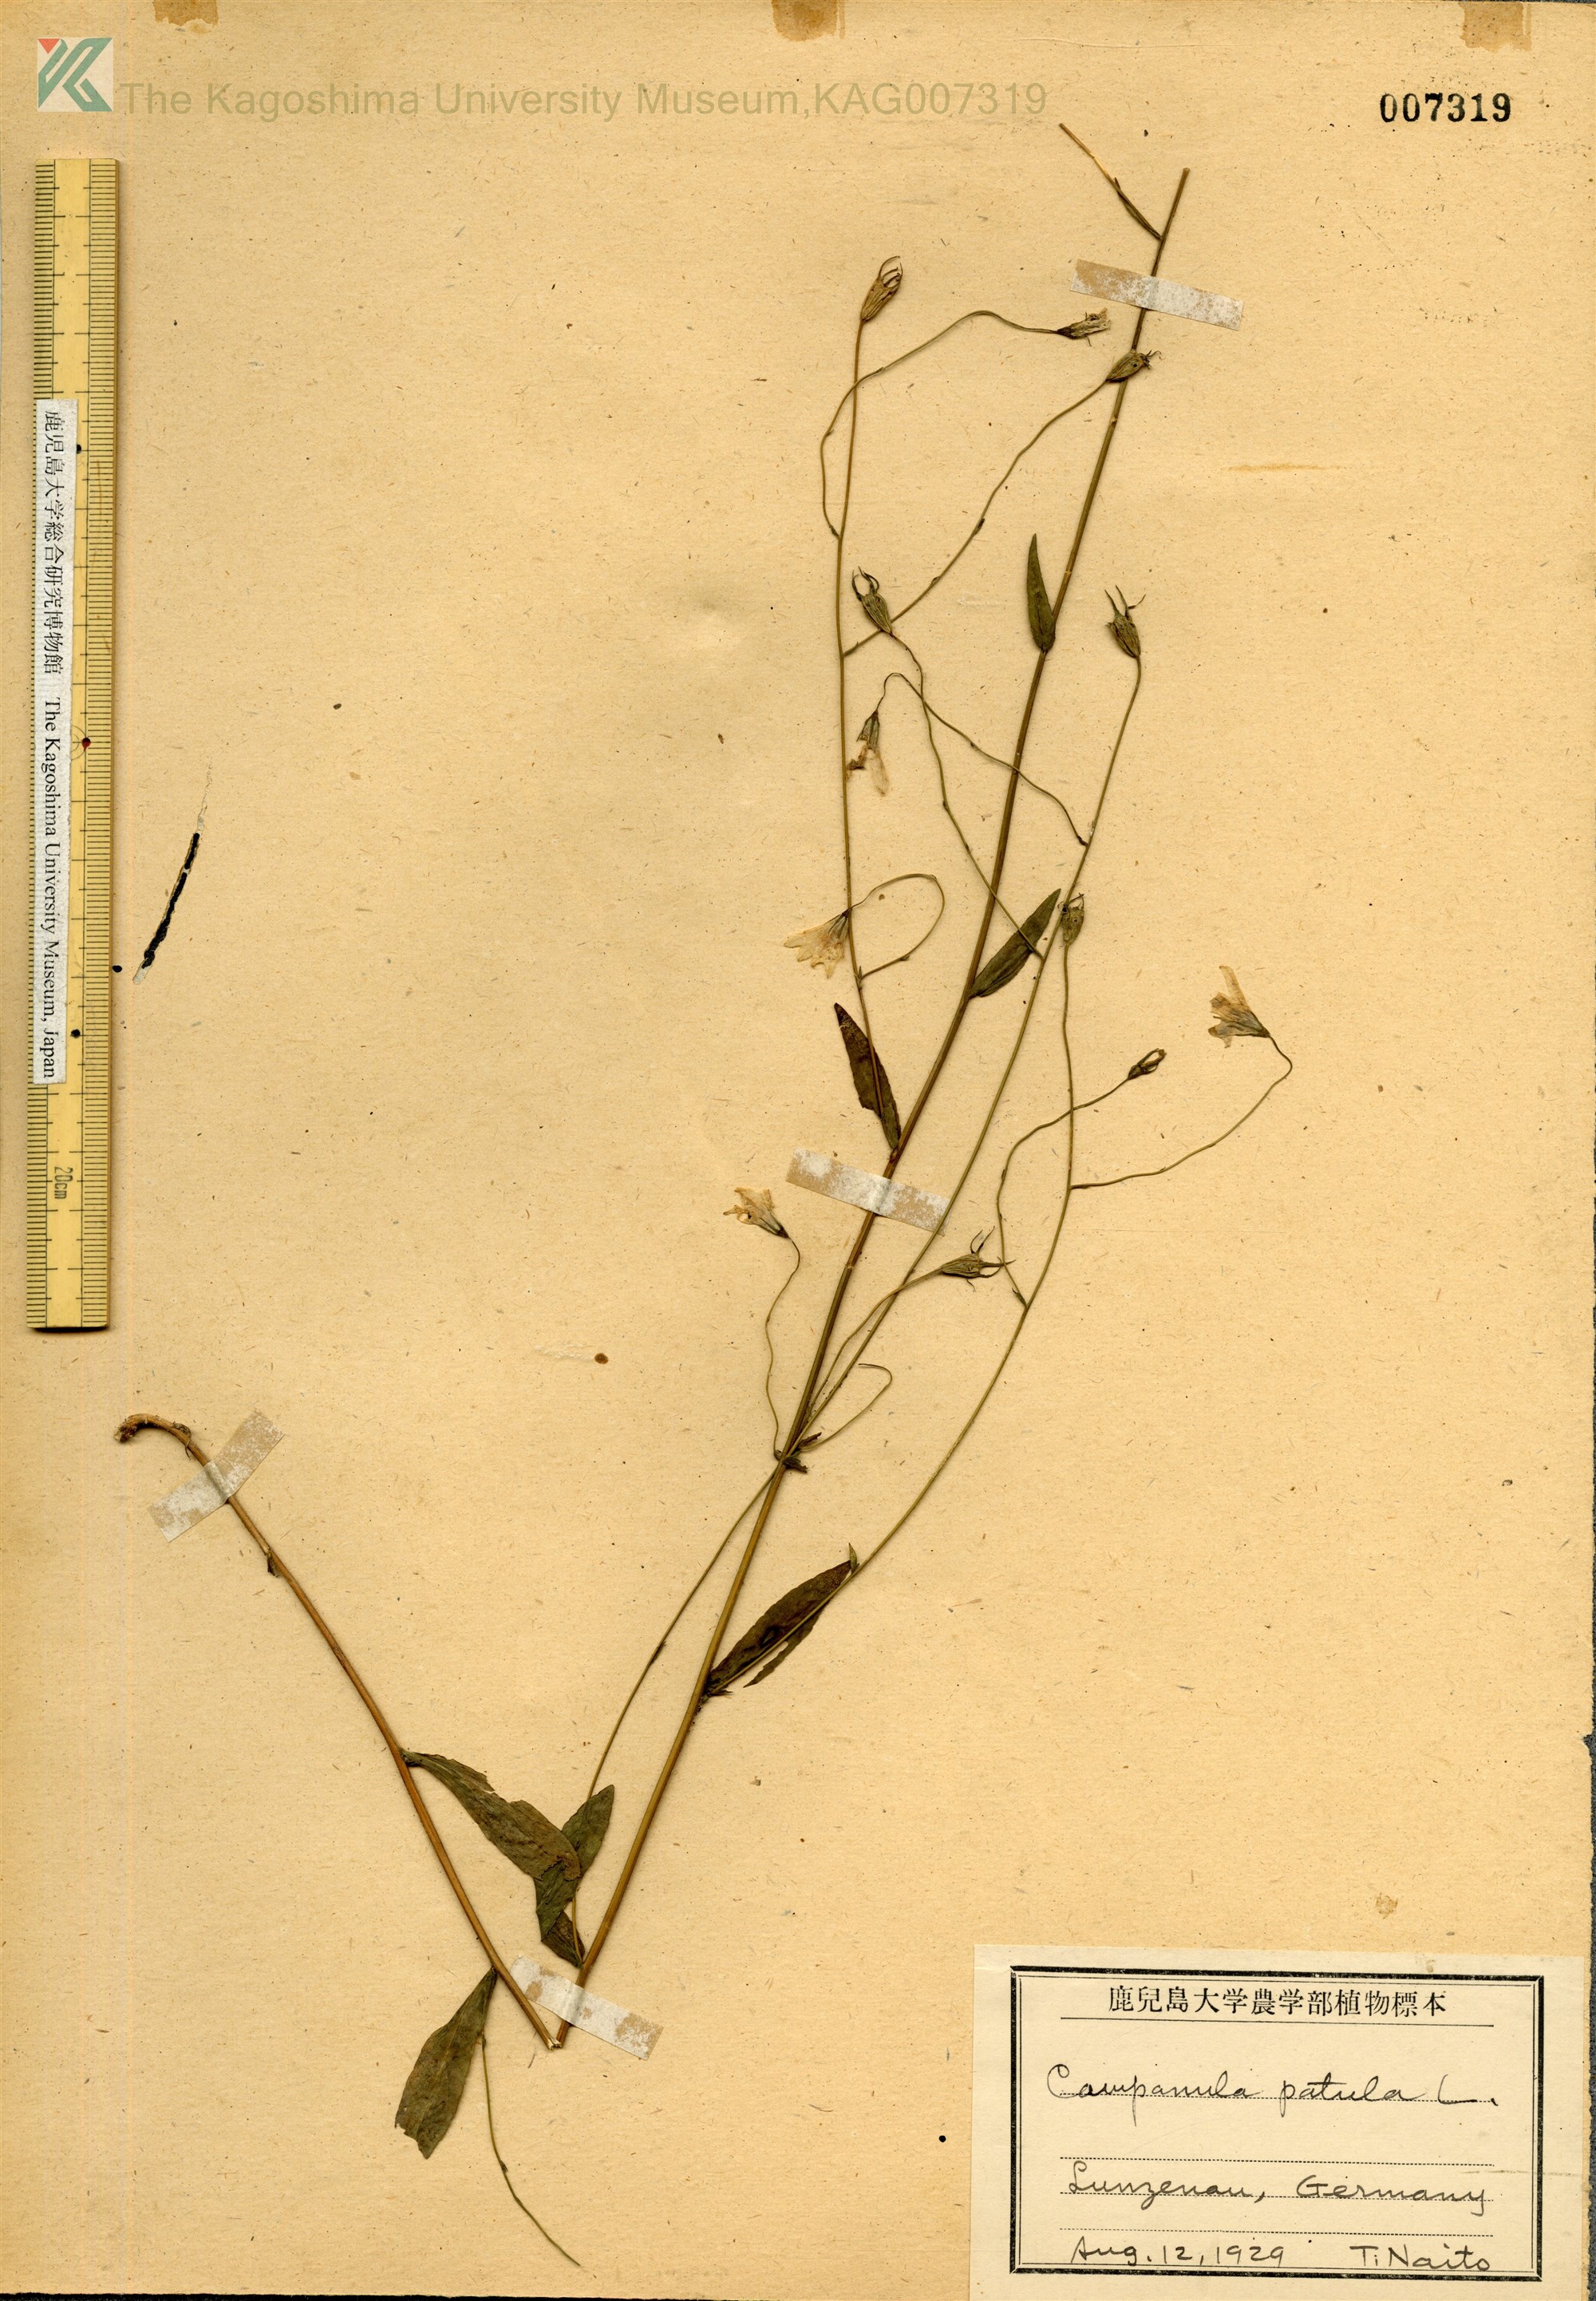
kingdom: Plantae
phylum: Tracheophyta
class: Magnoliopsida
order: Asterales
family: Campanulaceae
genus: Campanula
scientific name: Campanula patula
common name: Spreading bellflower
